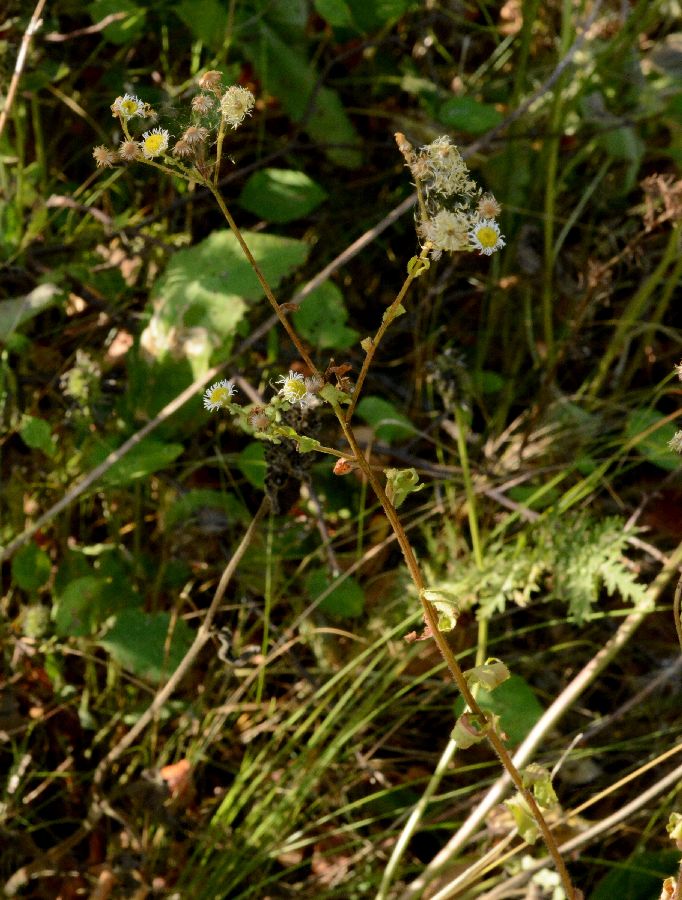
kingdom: Plantae
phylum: Tracheophyta
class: Magnoliopsida
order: Asterales
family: Asteraceae
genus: Erigeron
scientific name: Erigeron annuus
